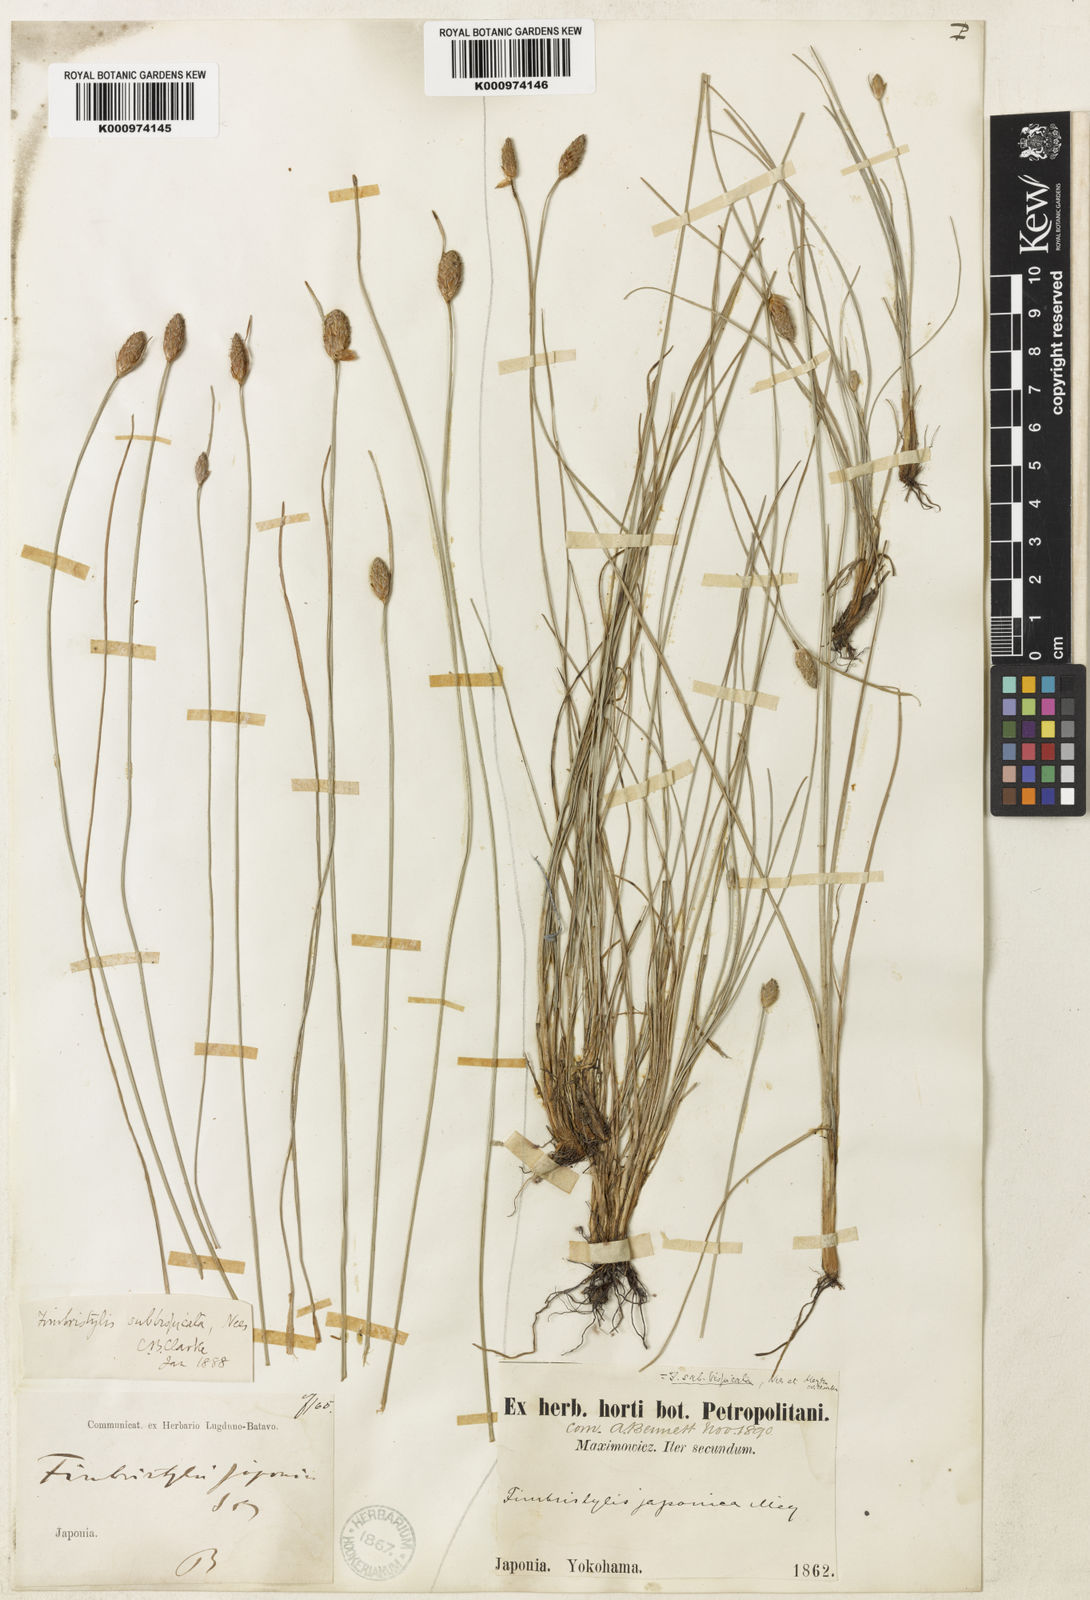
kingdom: Plantae
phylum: Tracheophyta
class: Liliopsida
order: Poales
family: Cyperaceae
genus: Fimbristylis
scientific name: Fimbristylis tristachya
